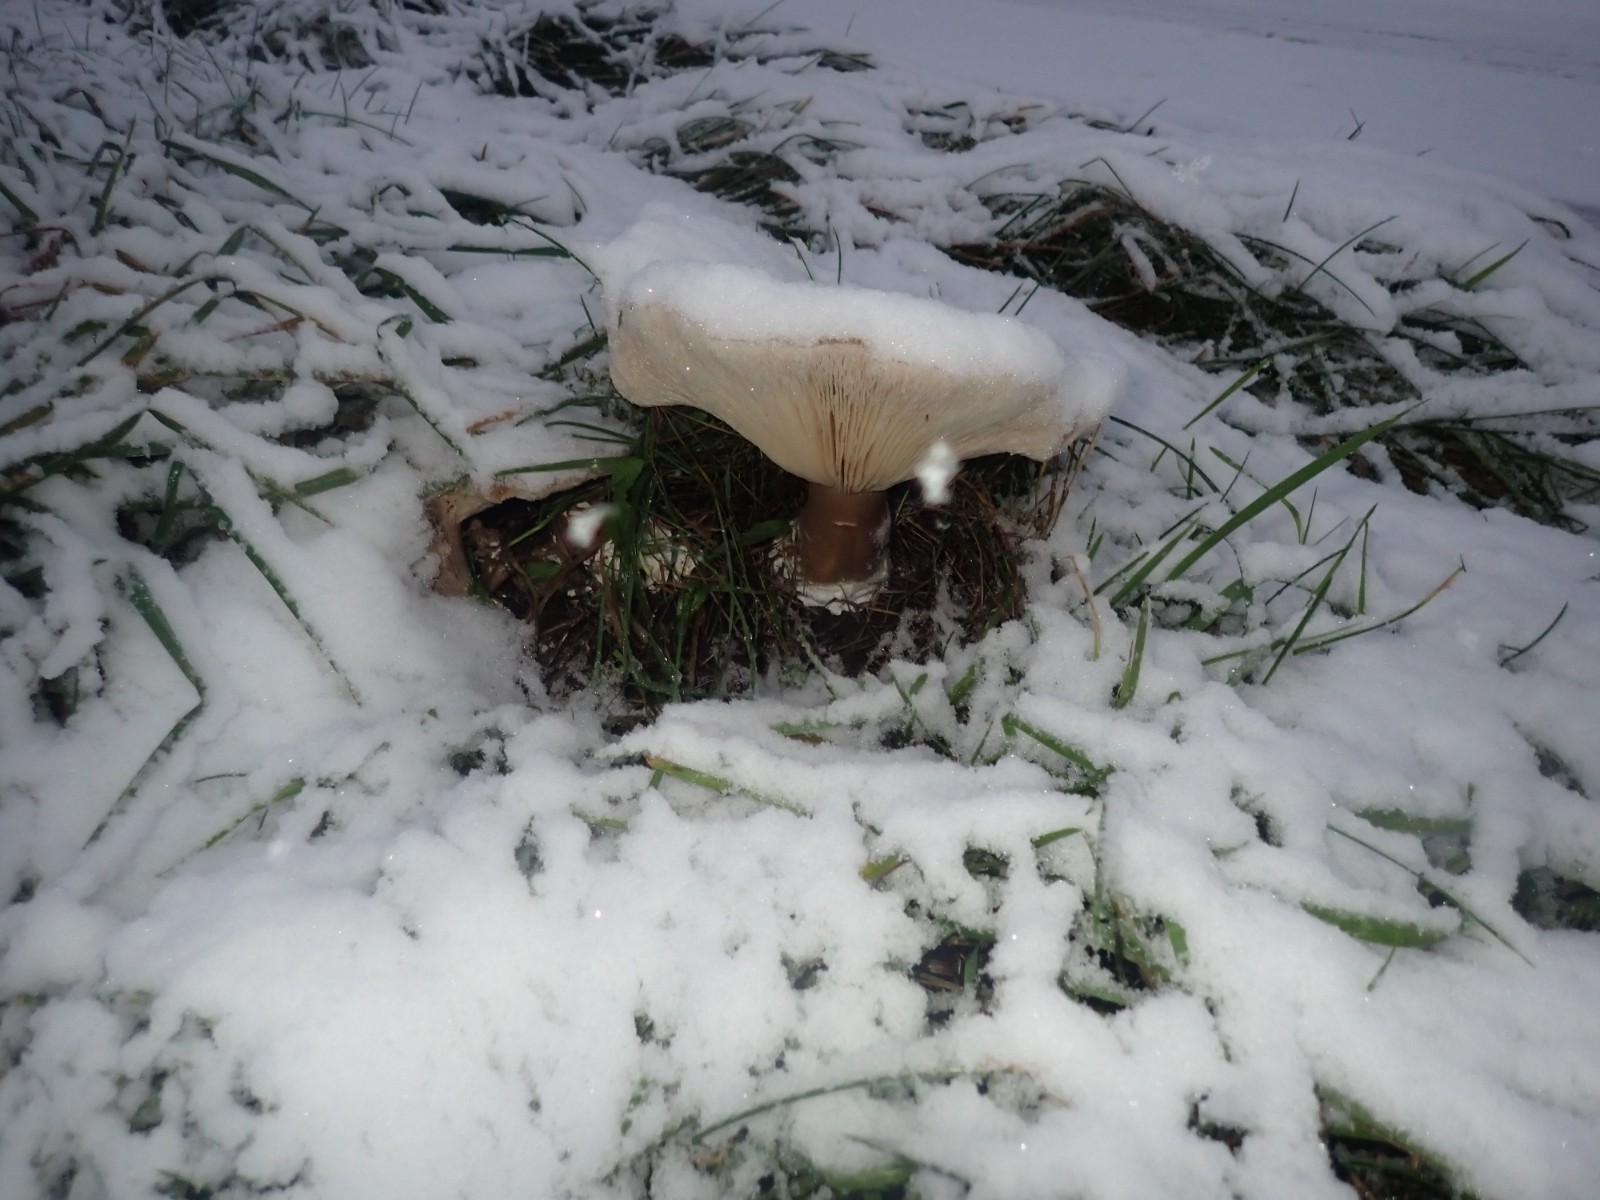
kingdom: Fungi
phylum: Basidiomycota
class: Agaricomycetes
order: Agaricales
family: Tricholomataceae
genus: Clitocybe
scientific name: Clitocybe nebularis
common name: tåge-tragthat
